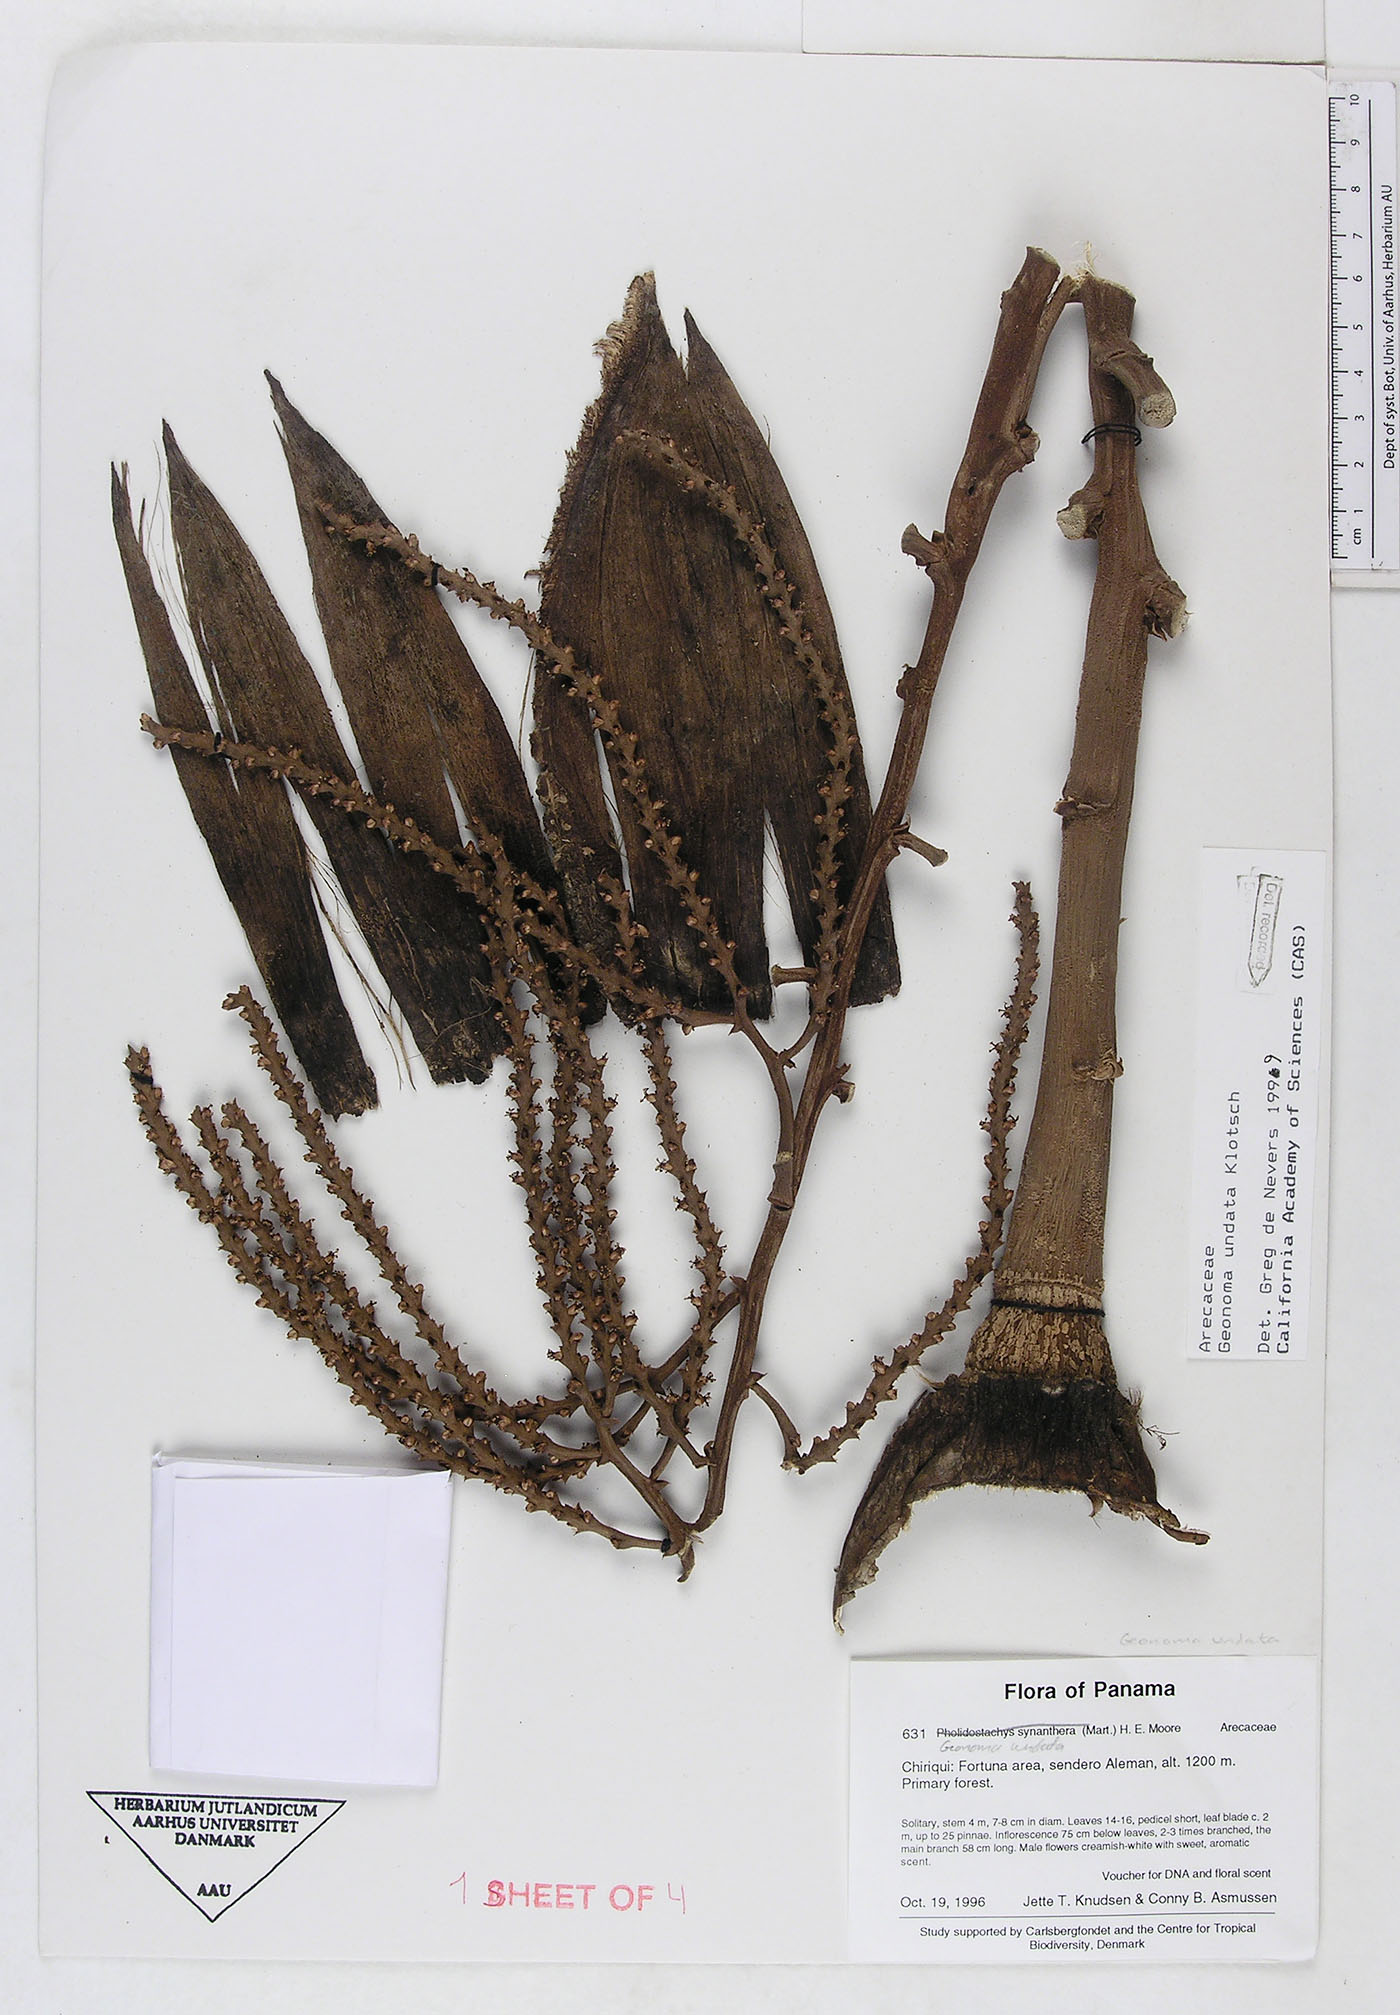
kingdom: Plantae
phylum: Tracheophyta
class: Liliopsida
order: Arecales
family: Arecaceae
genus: Geonoma
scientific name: Geonoma undata
